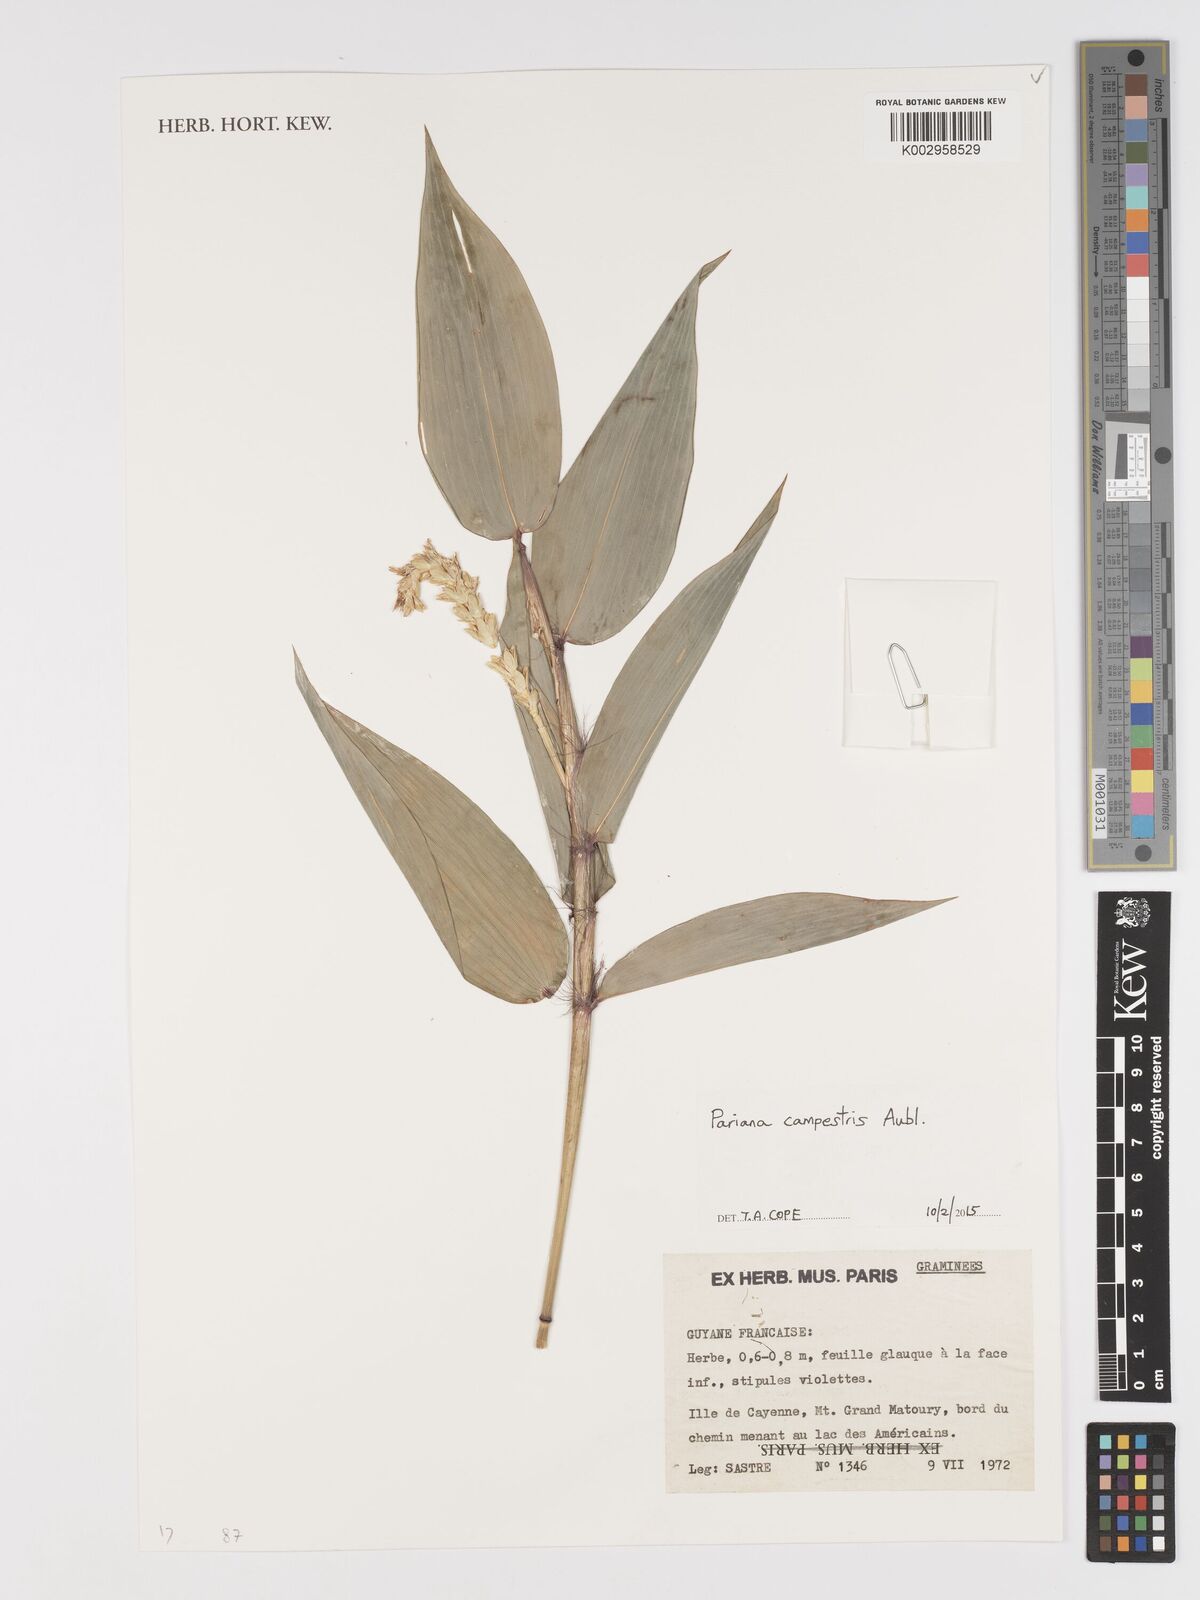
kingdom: Plantae
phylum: Tracheophyta
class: Liliopsida
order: Poales
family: Poaceae
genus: Pariana
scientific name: Pariana campestris
